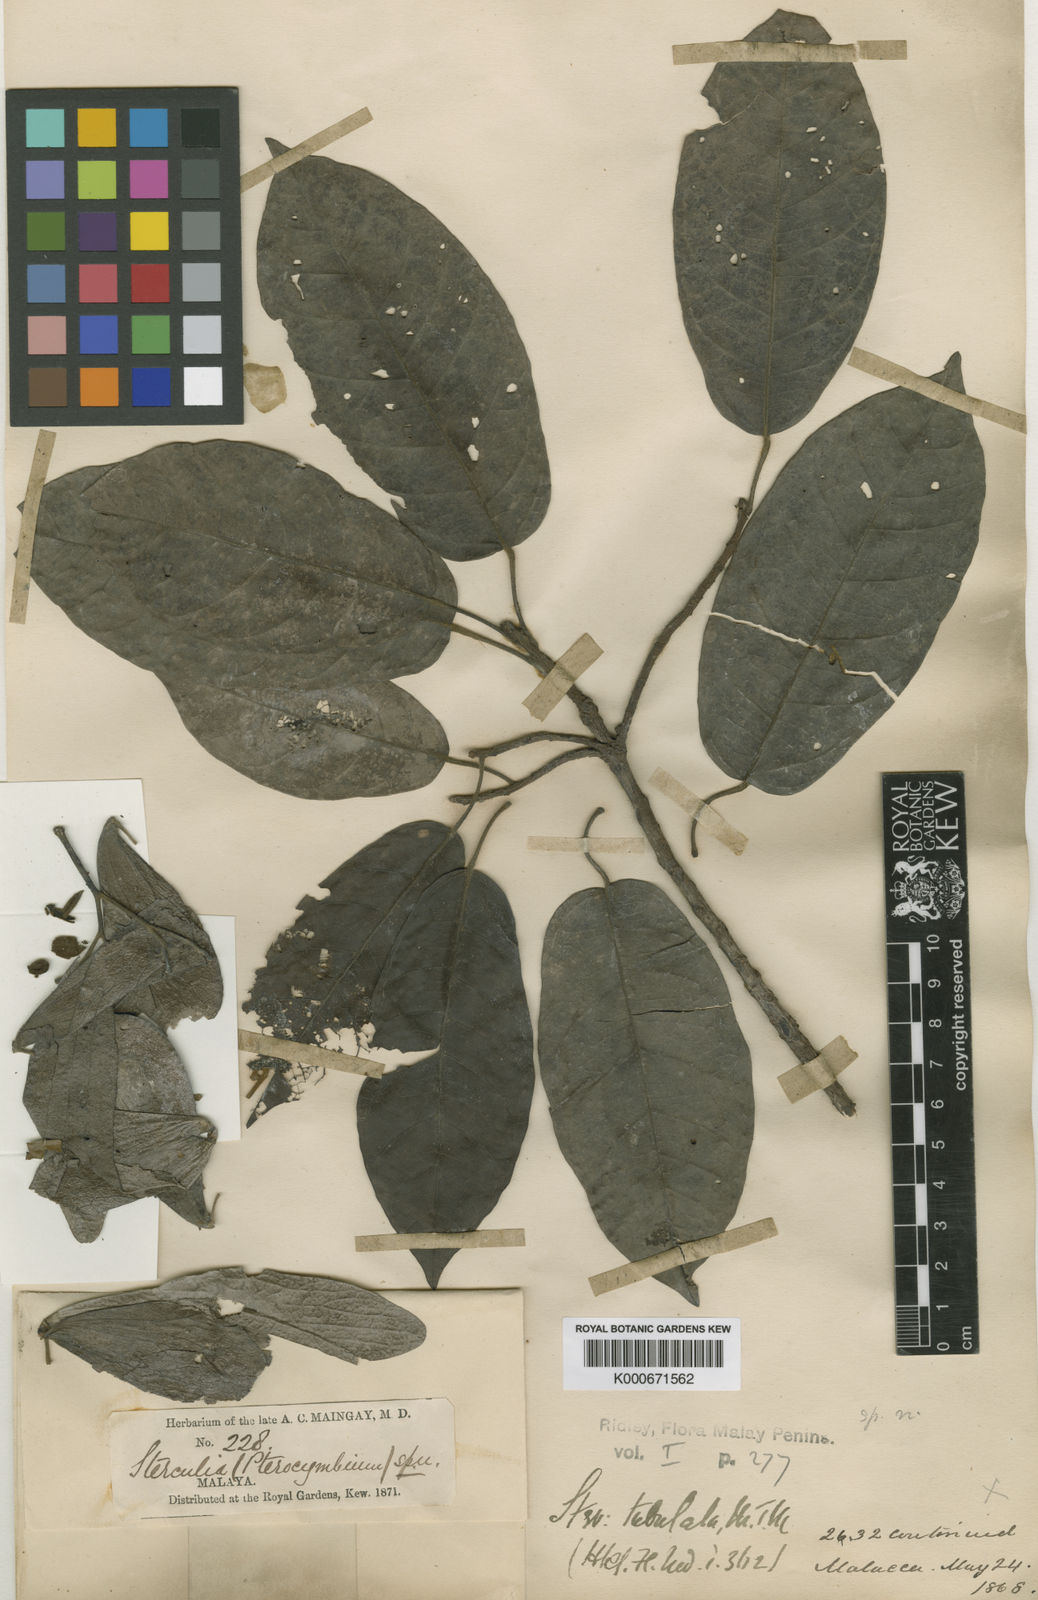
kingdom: Plantae
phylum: Tracheophyta
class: Magnoliopsida
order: Malvales
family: Malvaceae
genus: Pterocymbium
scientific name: Pterocymbium tubulatum
